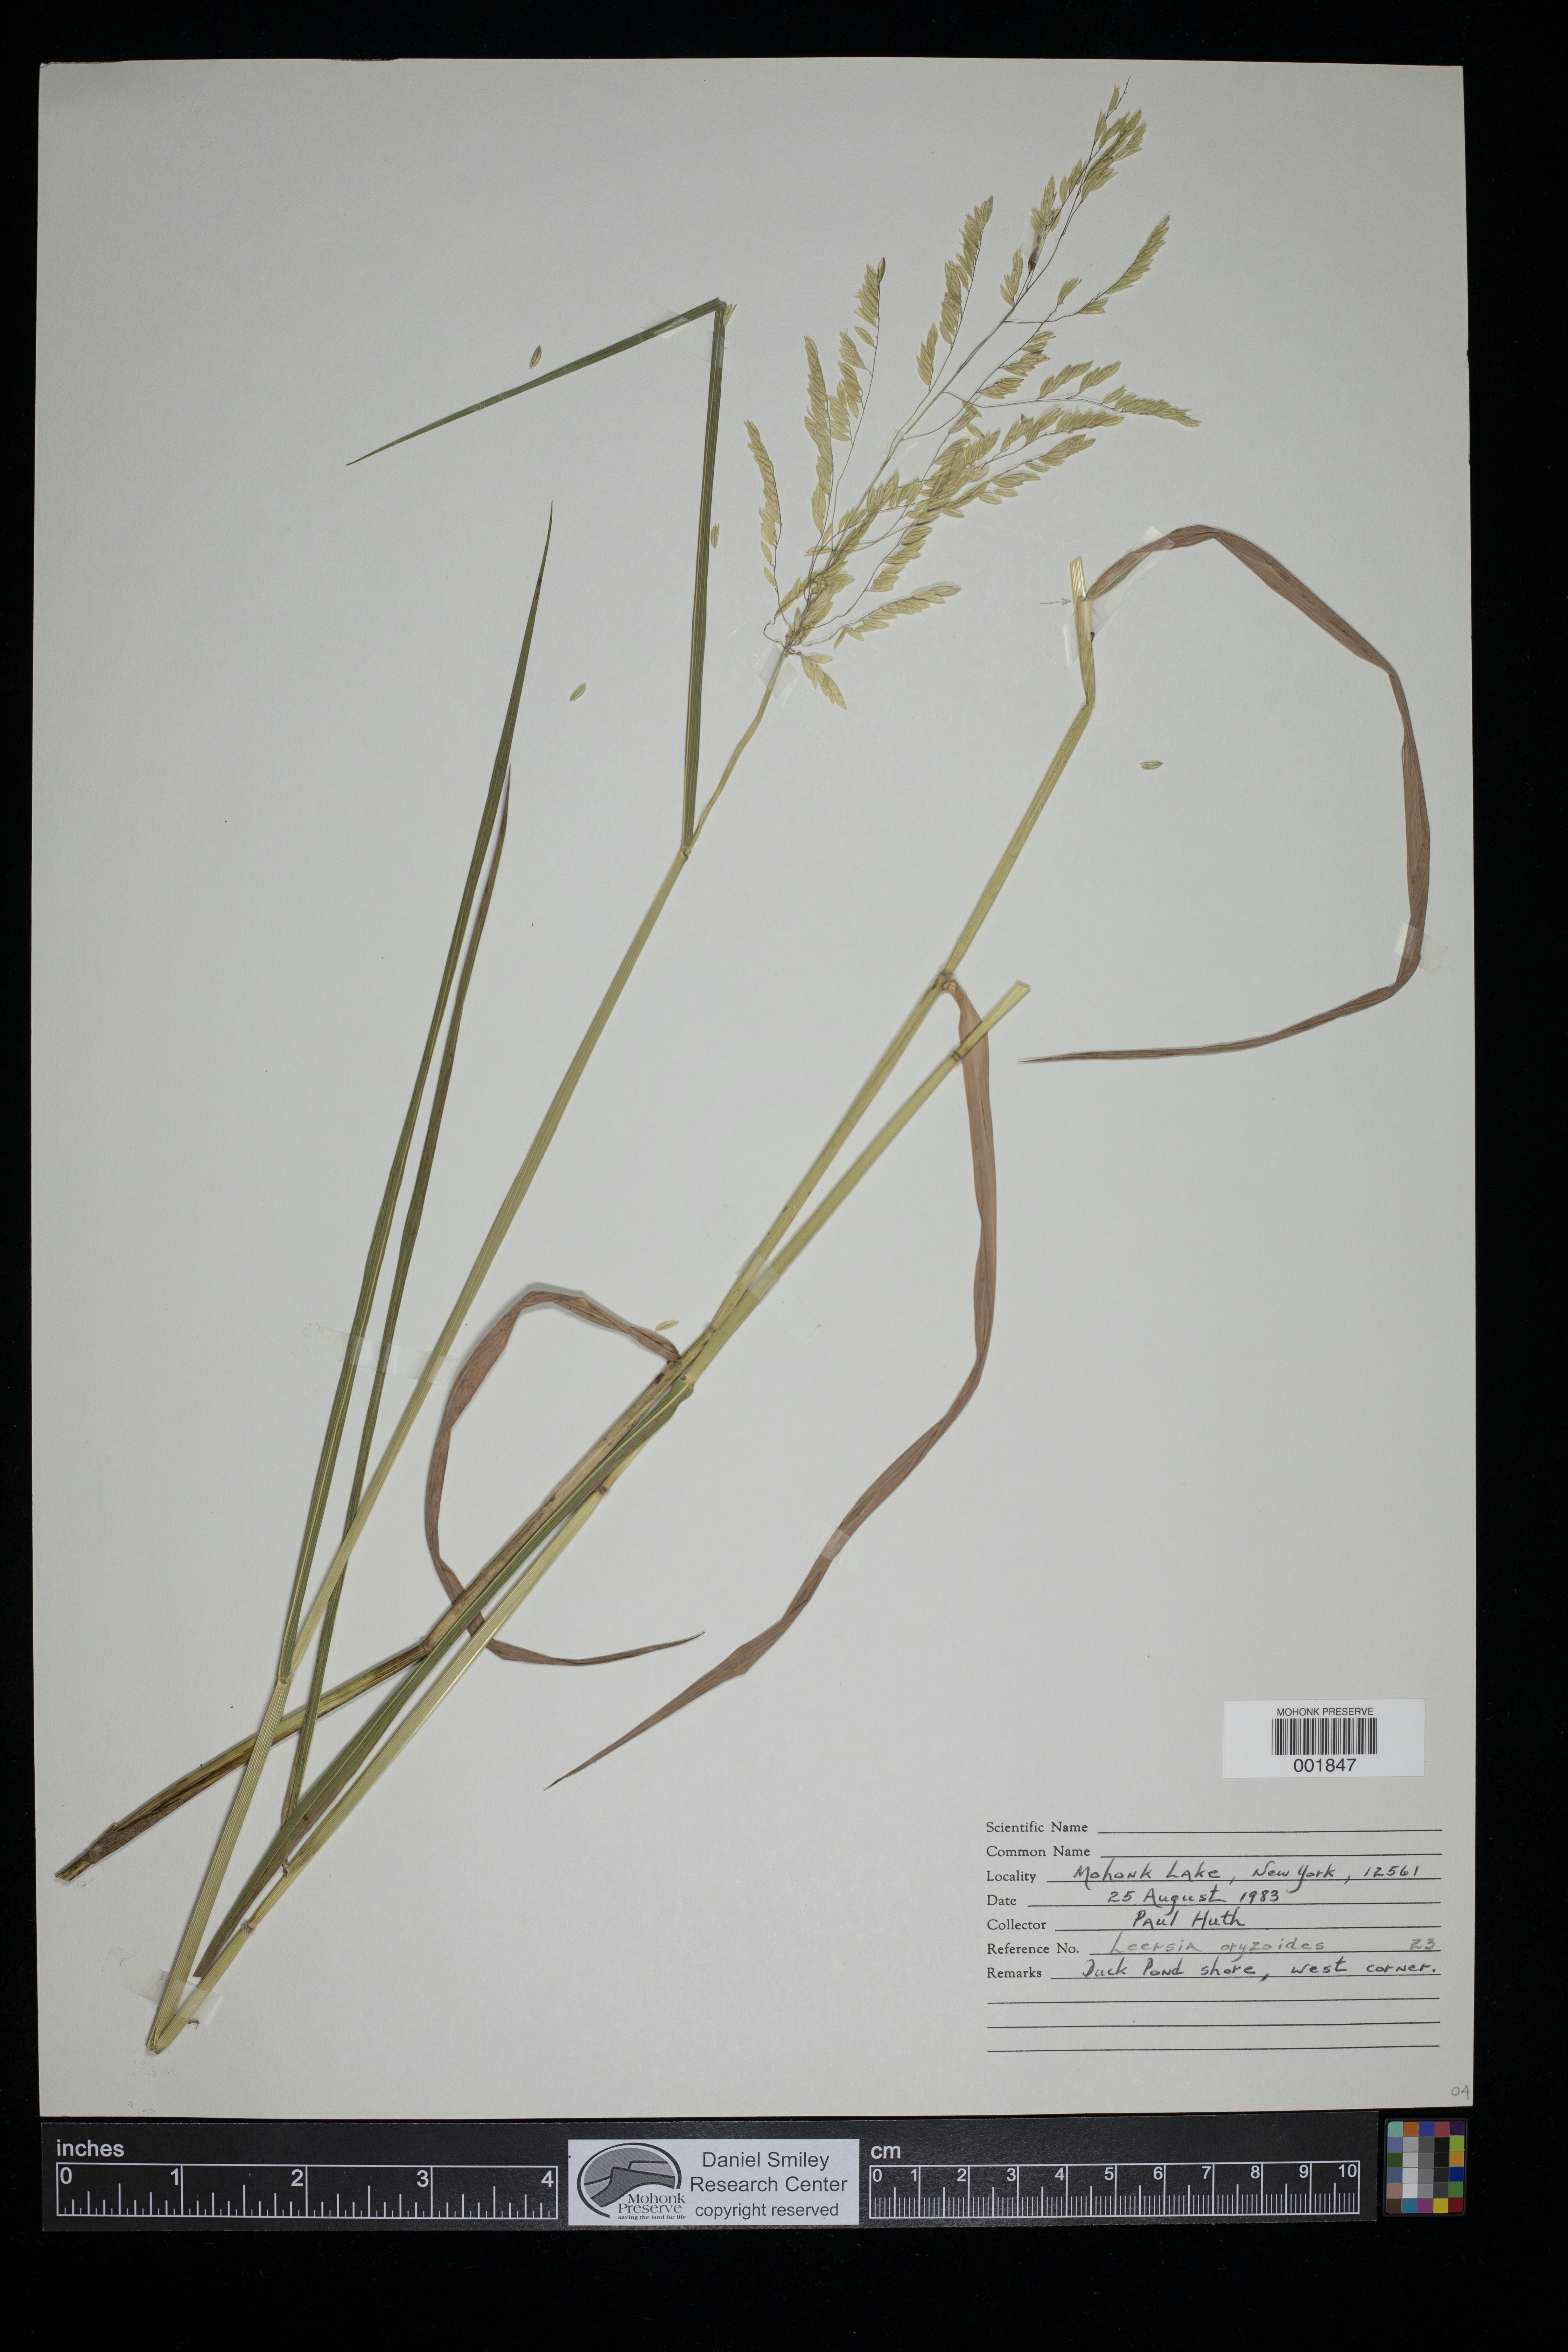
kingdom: Plantae
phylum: Tracheophyta
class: Liliopsida
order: Poales
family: Poaceae
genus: Leersia
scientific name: Leersia oryzoides
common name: Cut-grass
